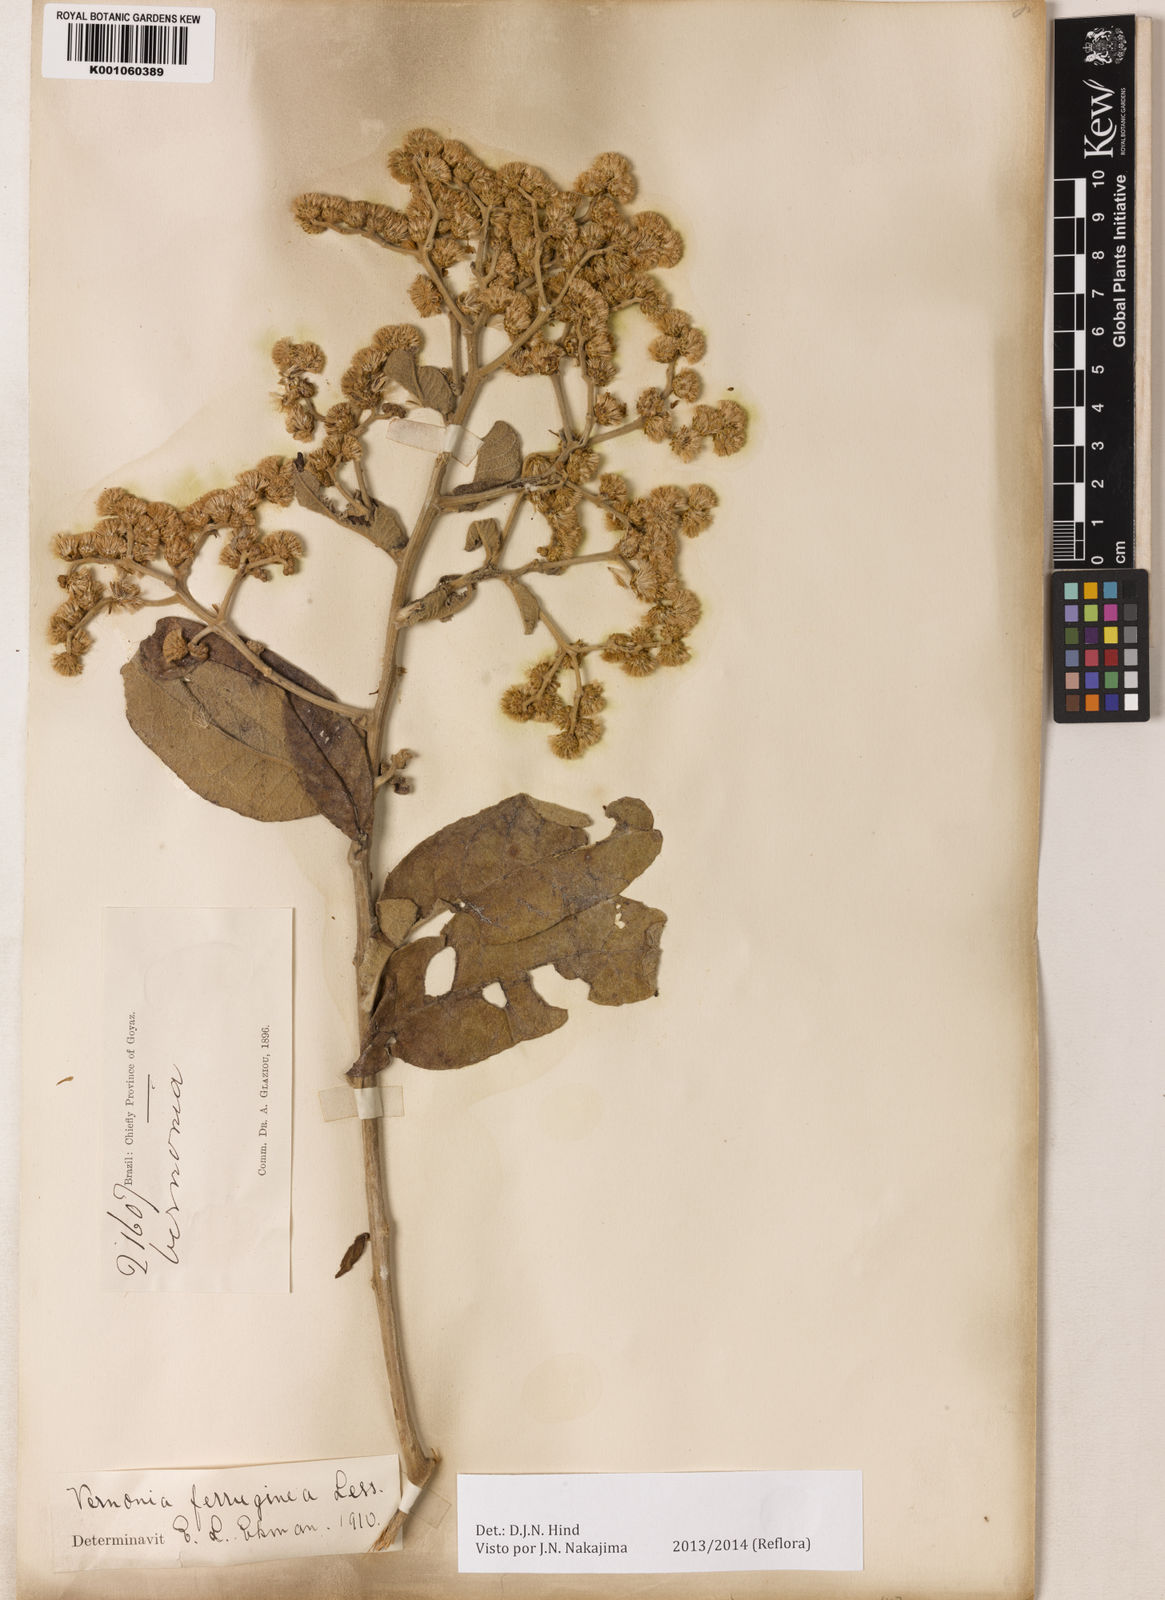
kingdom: Plantae
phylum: Tracheophyta
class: Magnoliopsida
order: Asterales
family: Asteraceae
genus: Vernonanthura
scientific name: Vernonanthura ferruginea
